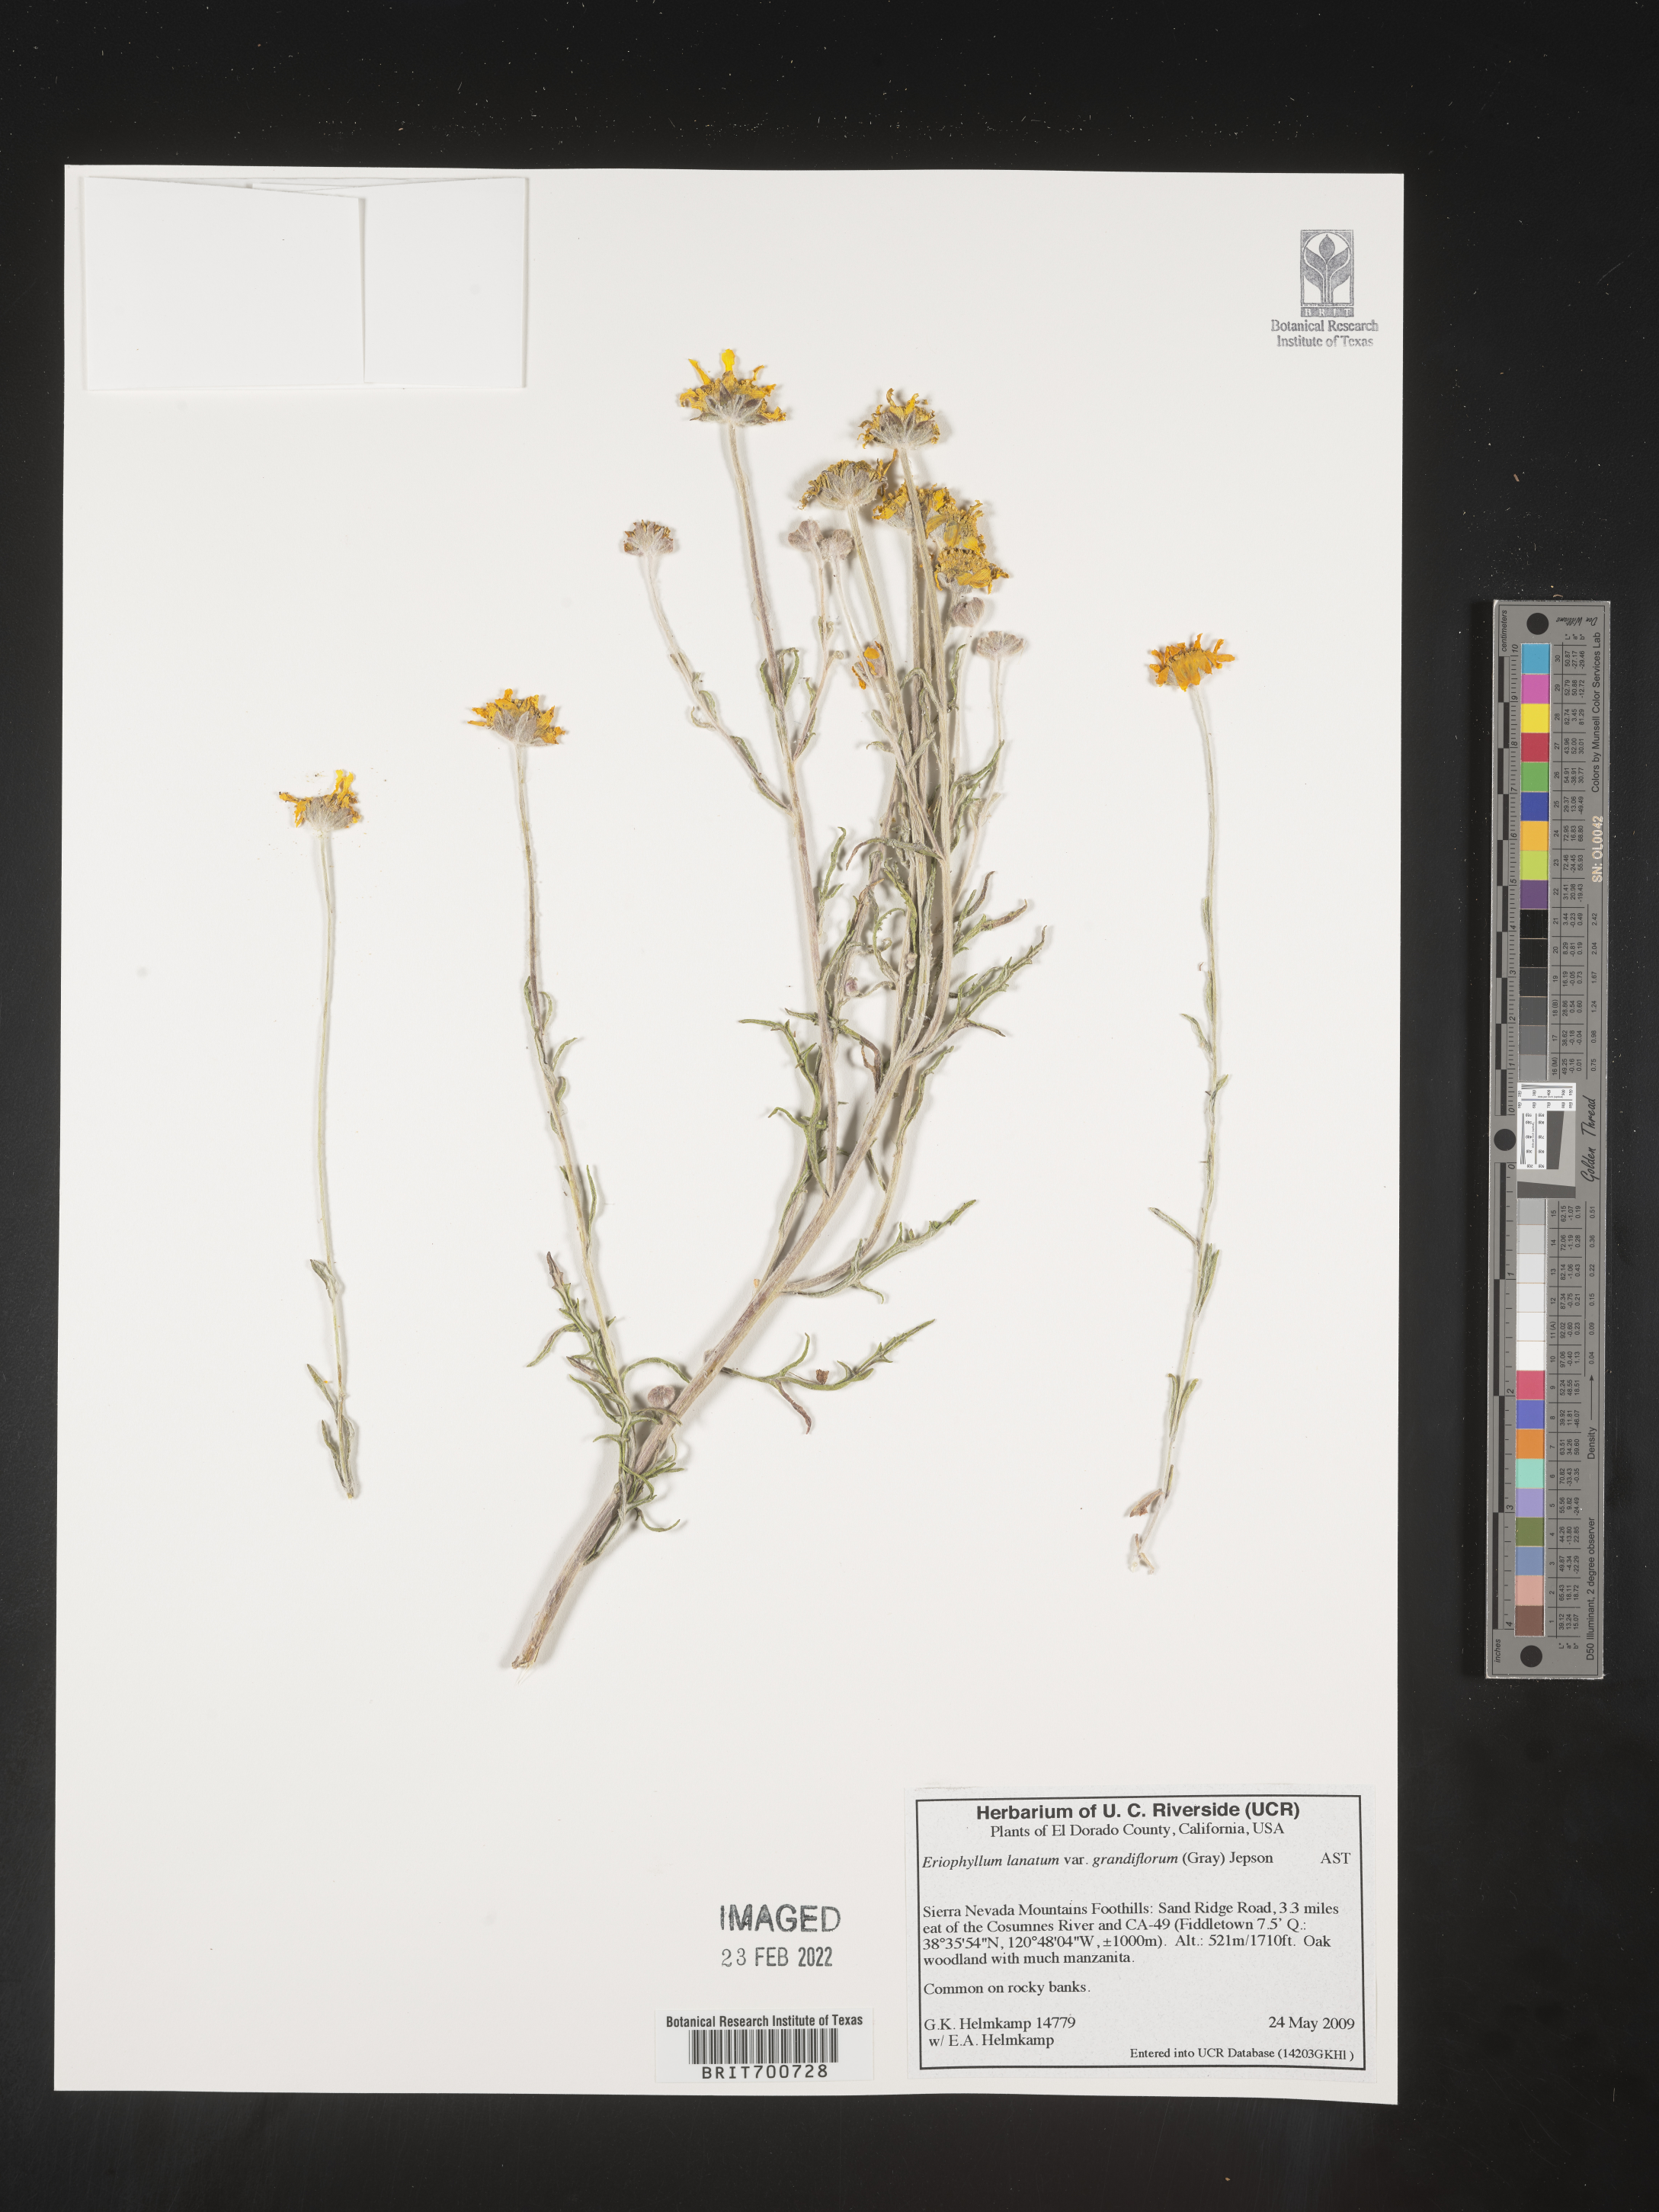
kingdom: Plantae
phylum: Tracheophyta
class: Magnoliopsida
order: Asterales
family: Asteraceae
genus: Eriophyllum
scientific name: Eriophyllum lanatum
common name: Common woolly-sunflower
